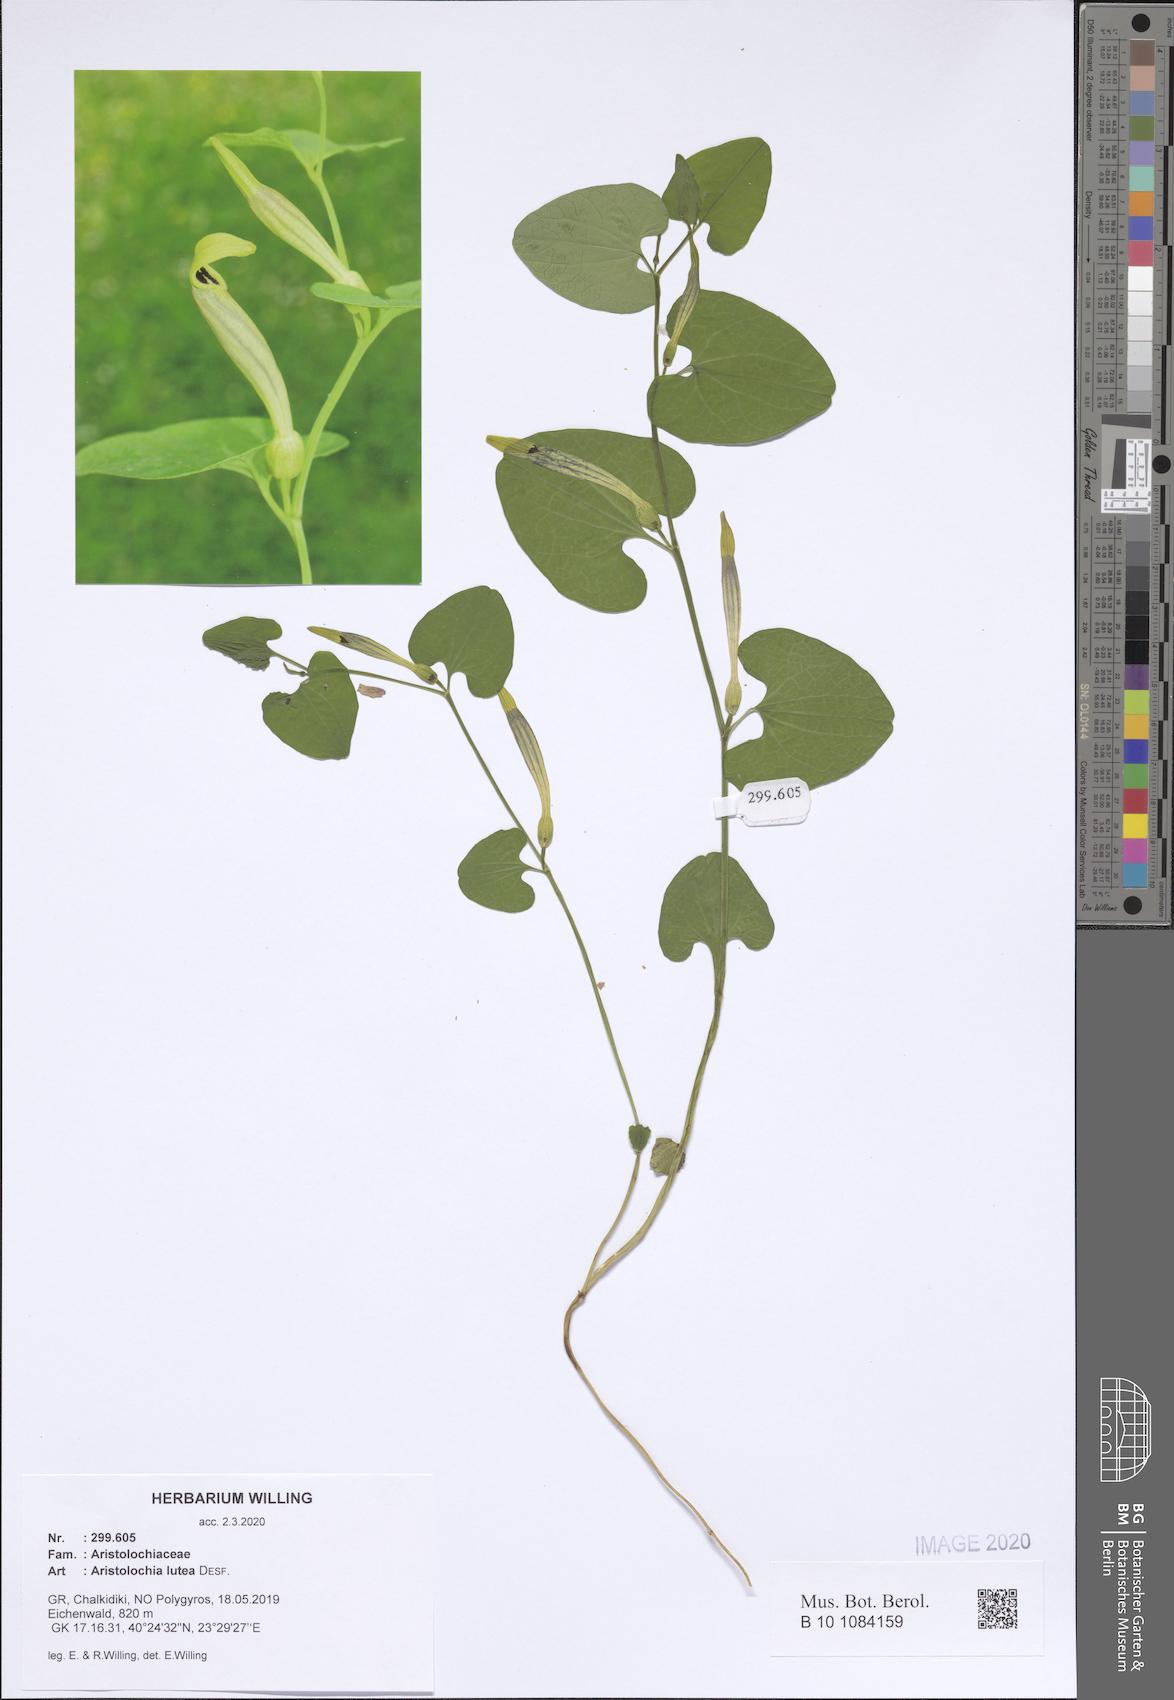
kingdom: Plantae
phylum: Tracheophyta
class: Magnoliopsida
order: Piperales
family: Aristolochiaceae
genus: Aristolochia
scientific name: Aristolochia lutea
